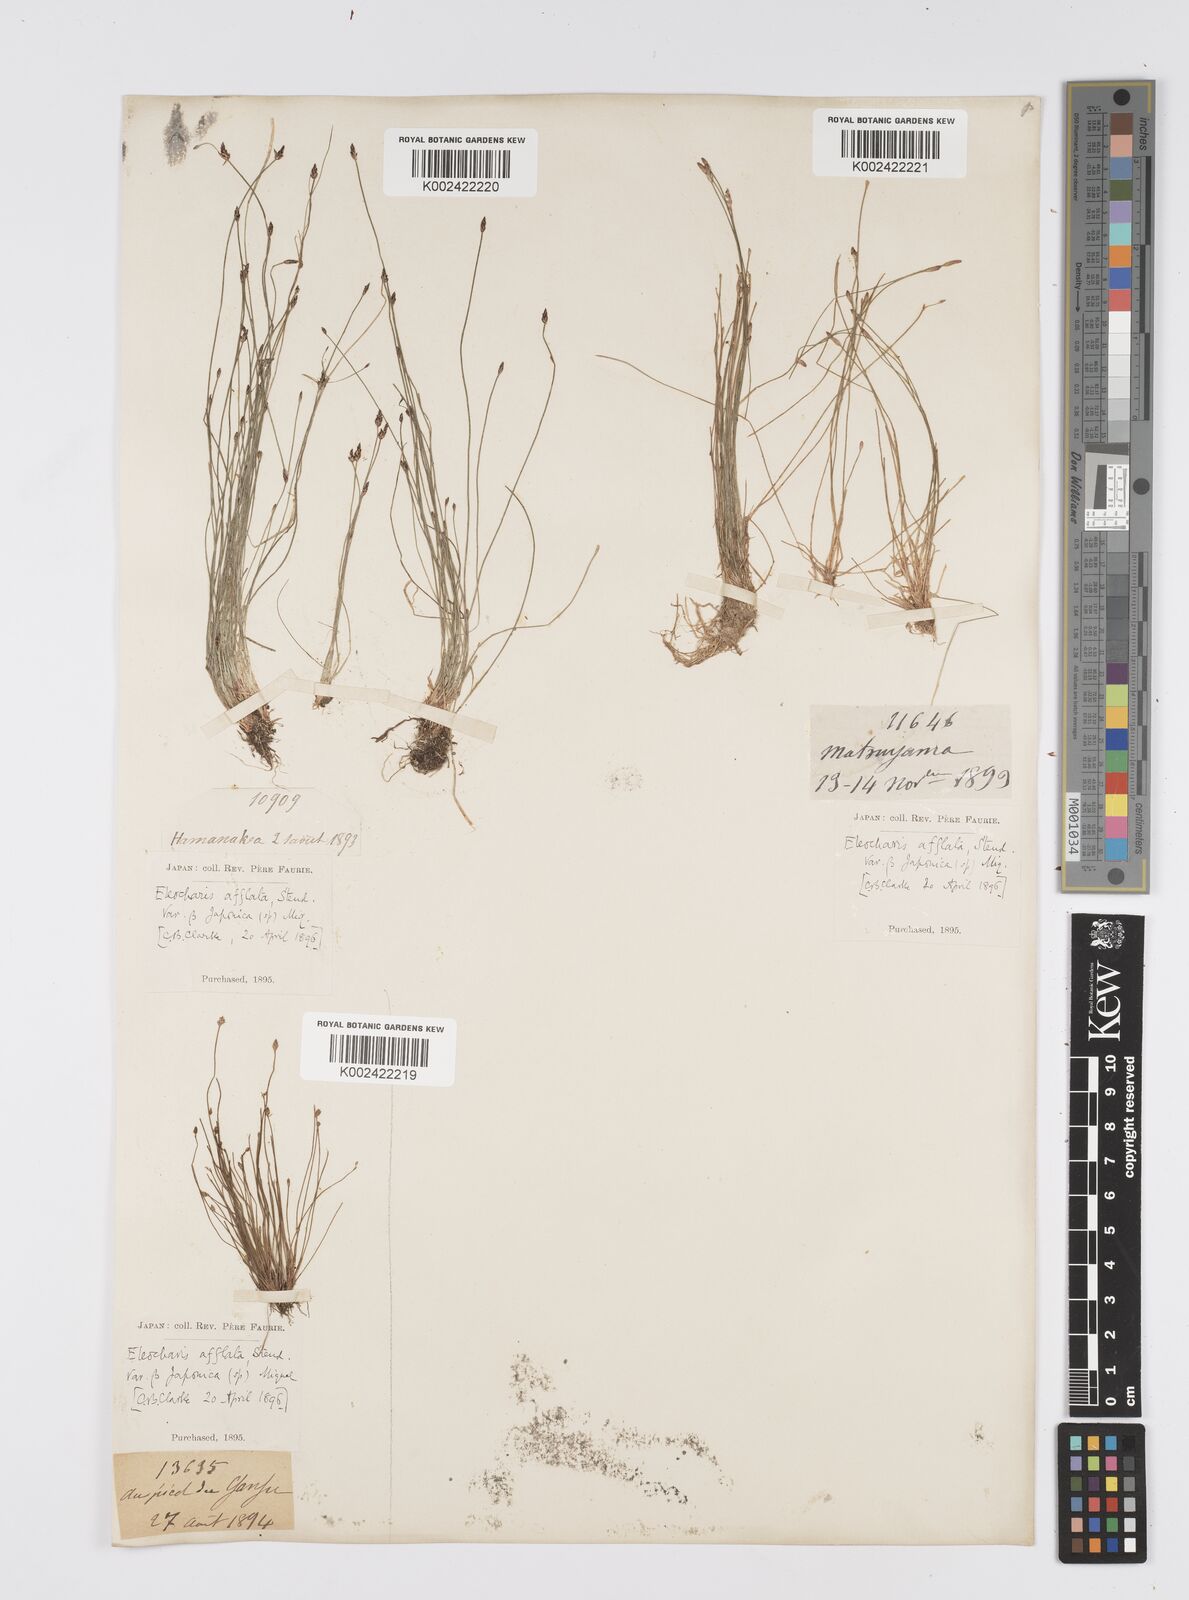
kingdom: Plantae
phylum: Tracheophyta
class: Liliopsida
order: Poales
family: Cyperaceae
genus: Eleocharis
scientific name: Eleocharis pellucida
